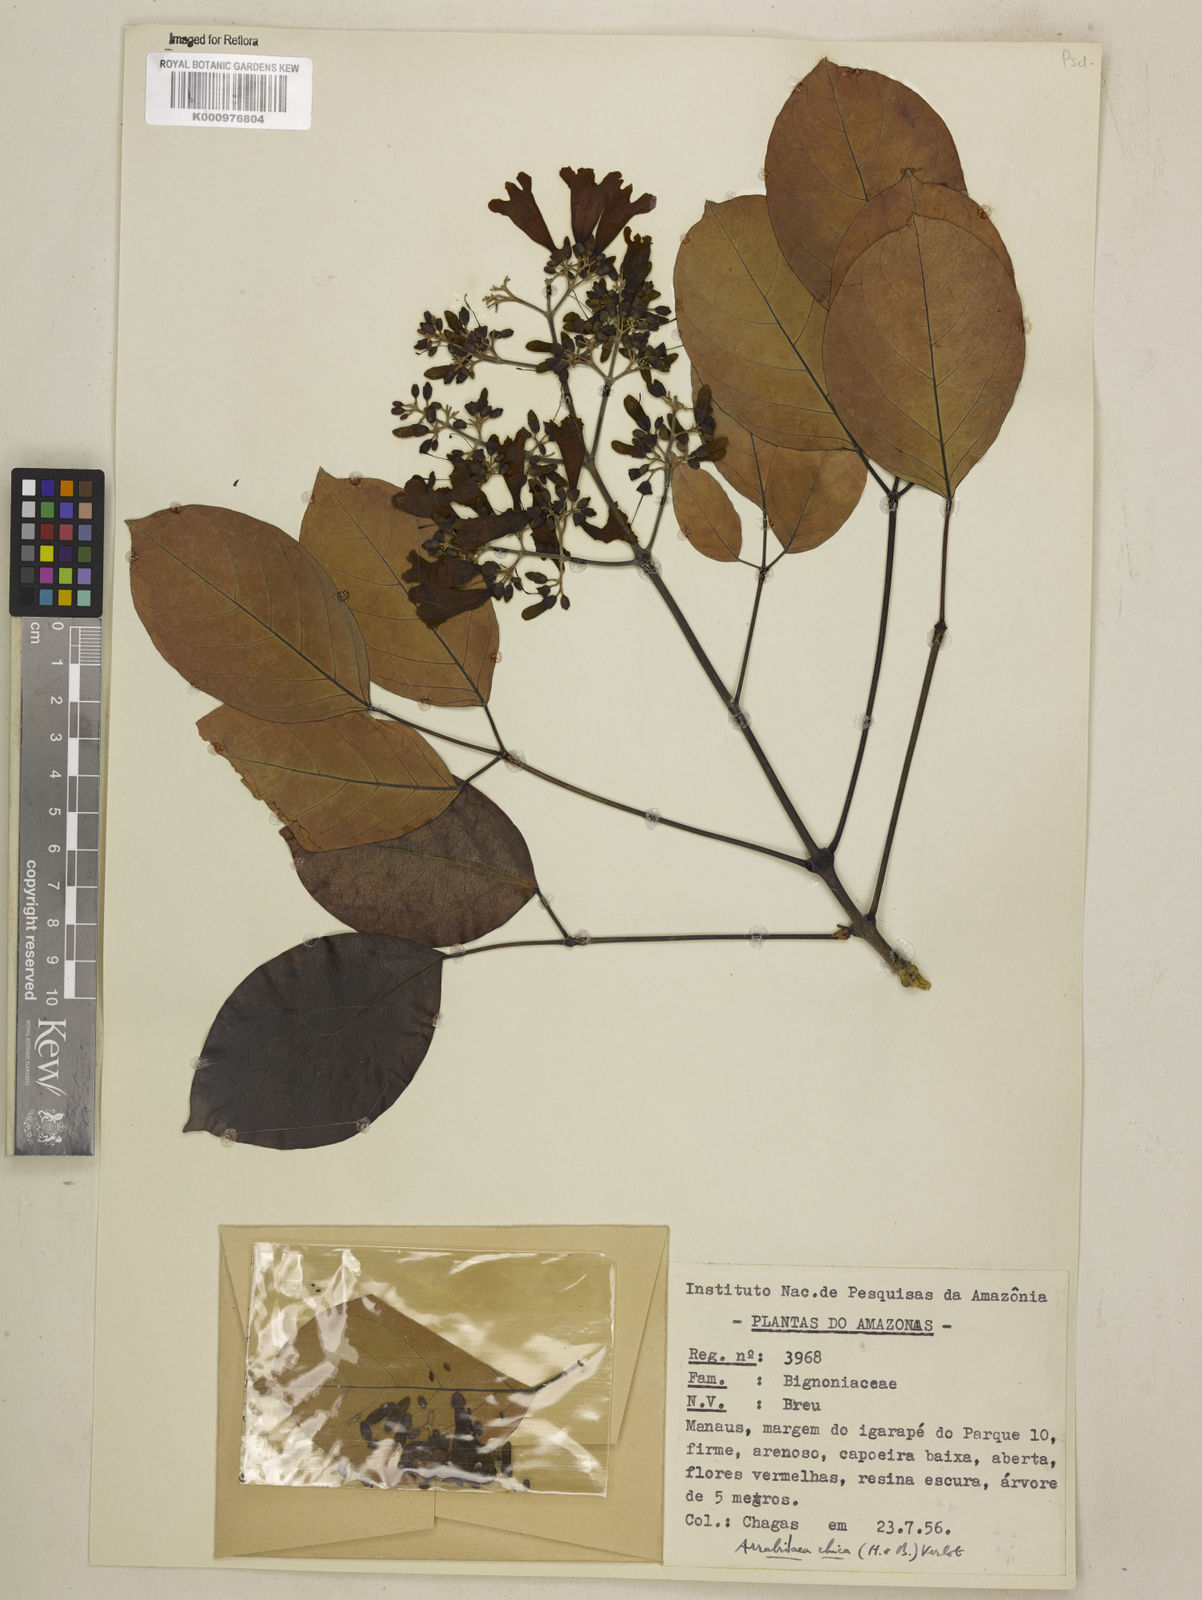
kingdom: Plantae
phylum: Tracheophyta
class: Magnoliopsida
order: Lamiales
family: Bignoniaceae
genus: Fridericia
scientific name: Fridericia chica
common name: Cricketvine
